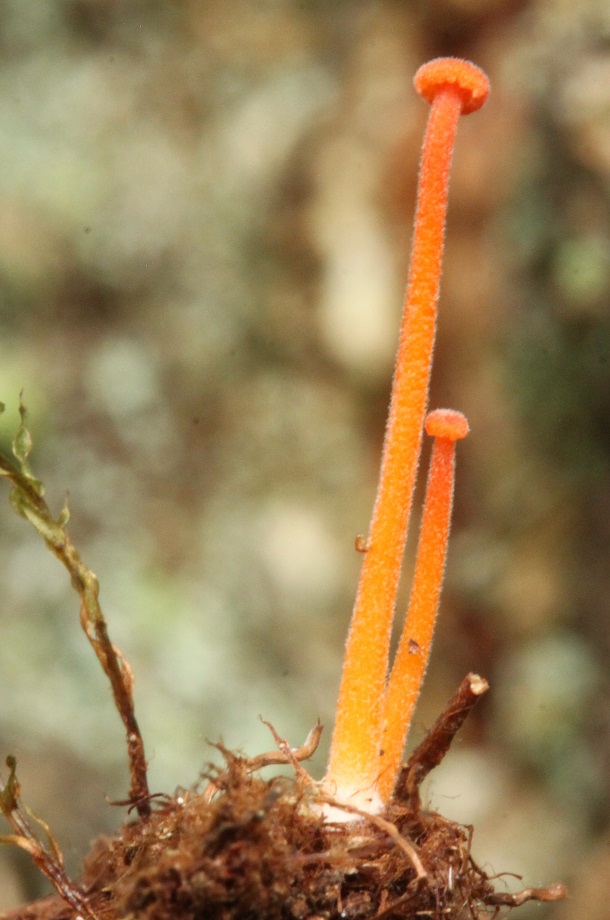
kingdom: Fungi
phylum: Basidiomycota
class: Agaricomycetes
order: Hymenochaetales
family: Rickenellaceae
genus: Rickenella
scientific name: Rickenella fibula
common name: orange mosnavlehat
